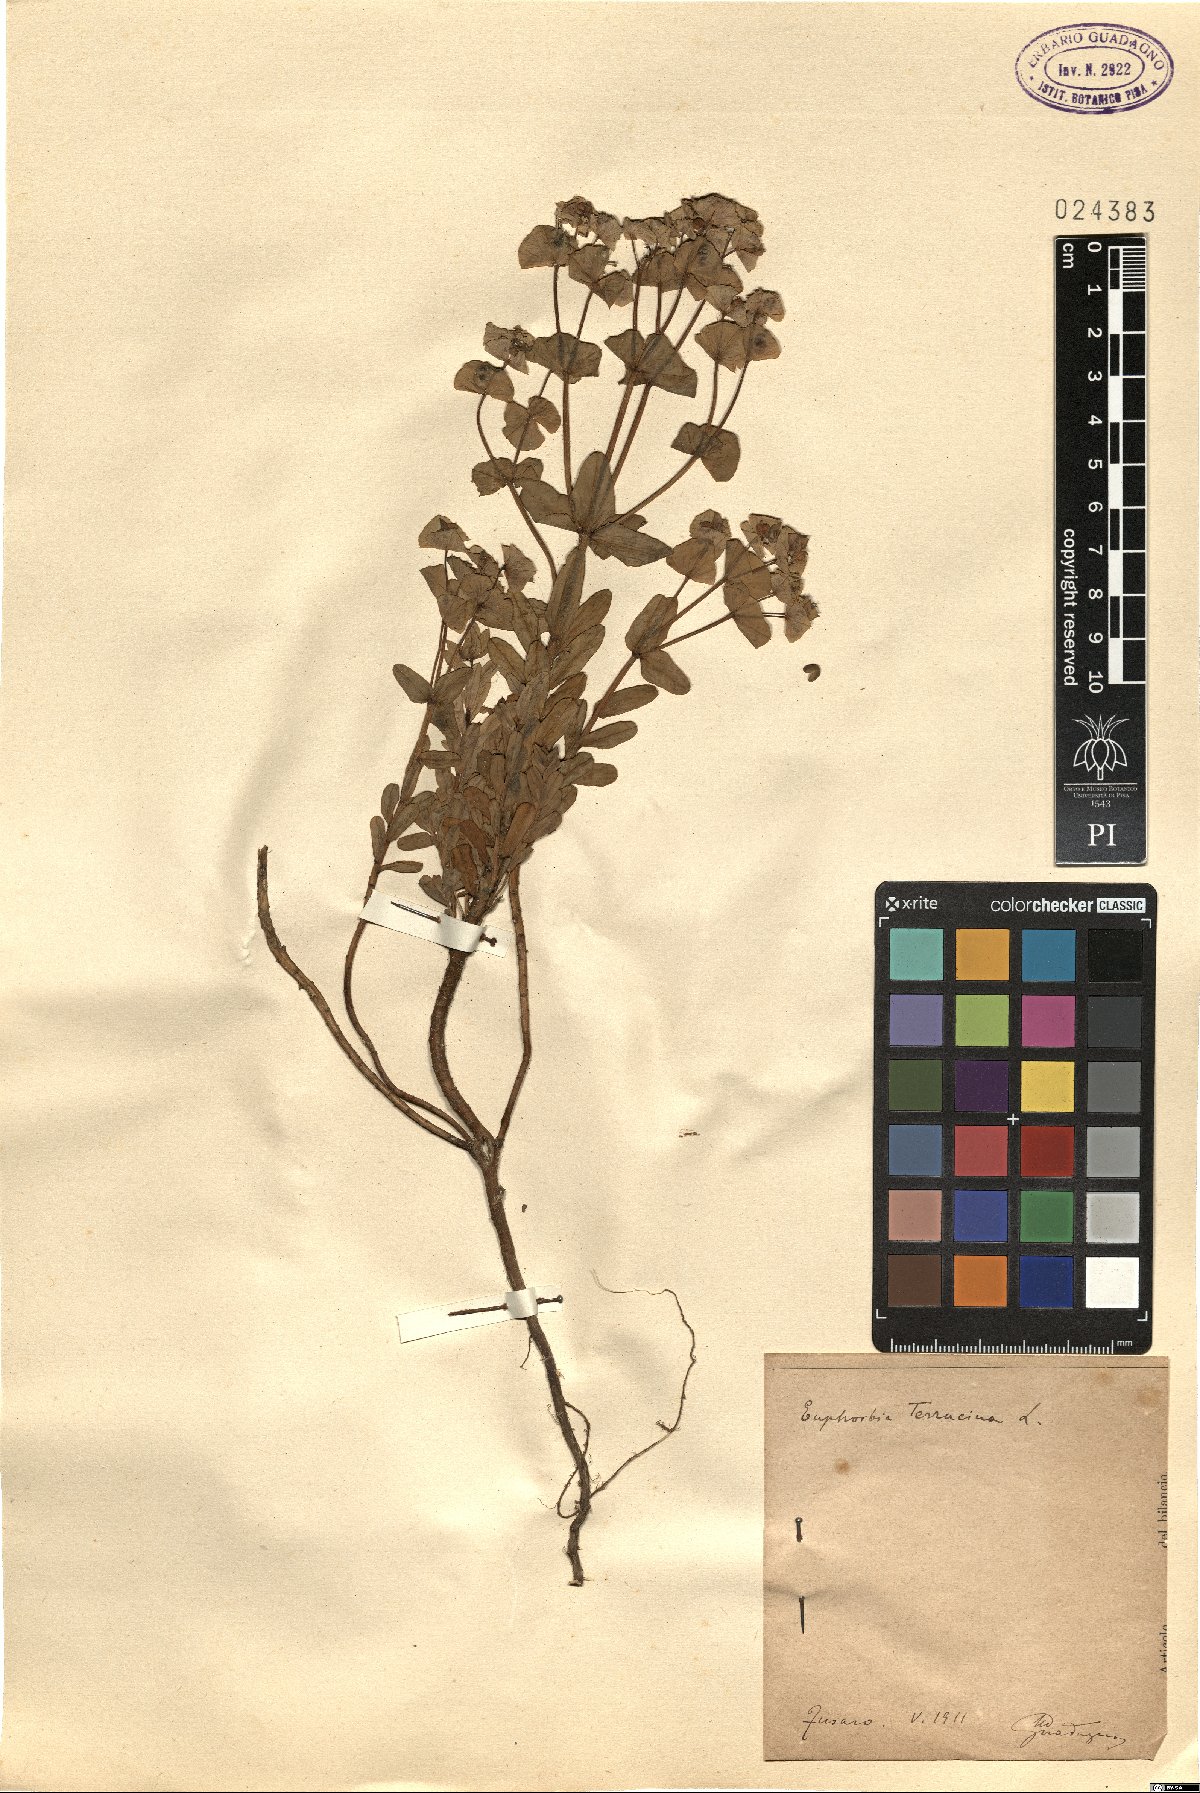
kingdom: Plantae
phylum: Tracheophyta
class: Magnoliopsida
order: Malpighiales
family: Euphorbiaceae
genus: Euphorbia
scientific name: Euphorbia terracina
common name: Geraldton carnation weed
